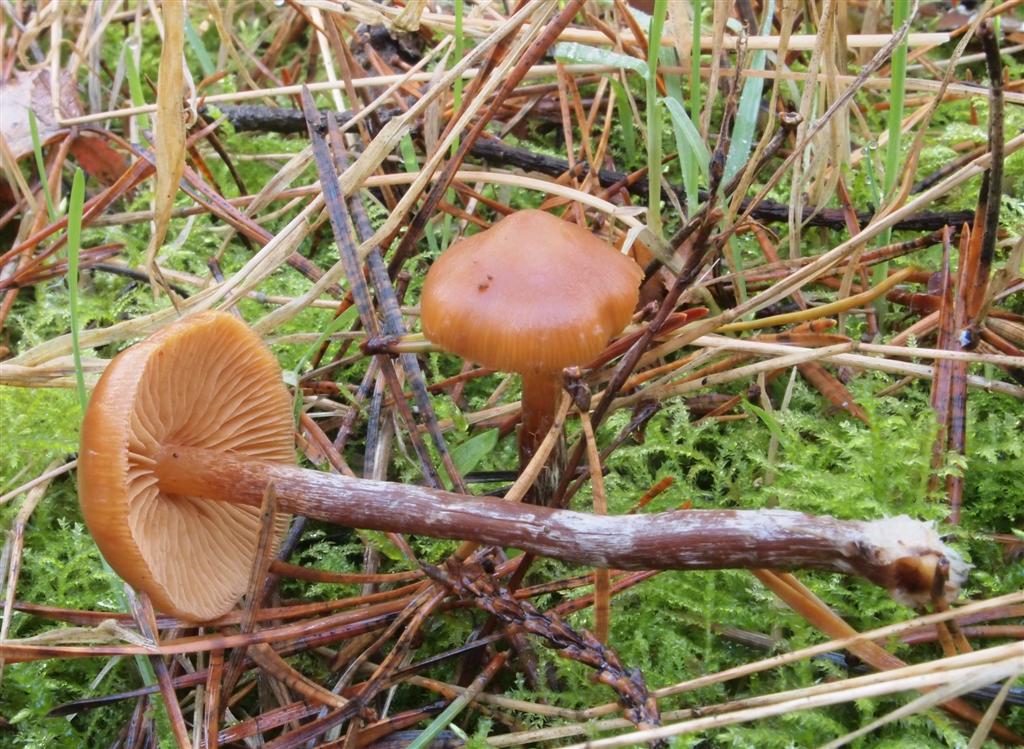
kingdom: Fungi
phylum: Basidiomycota
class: Agaricomycetes
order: Agaricales
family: Hymenogastraceae
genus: Galerina
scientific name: Galerina sideroides
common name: træflis-hjelmhat
